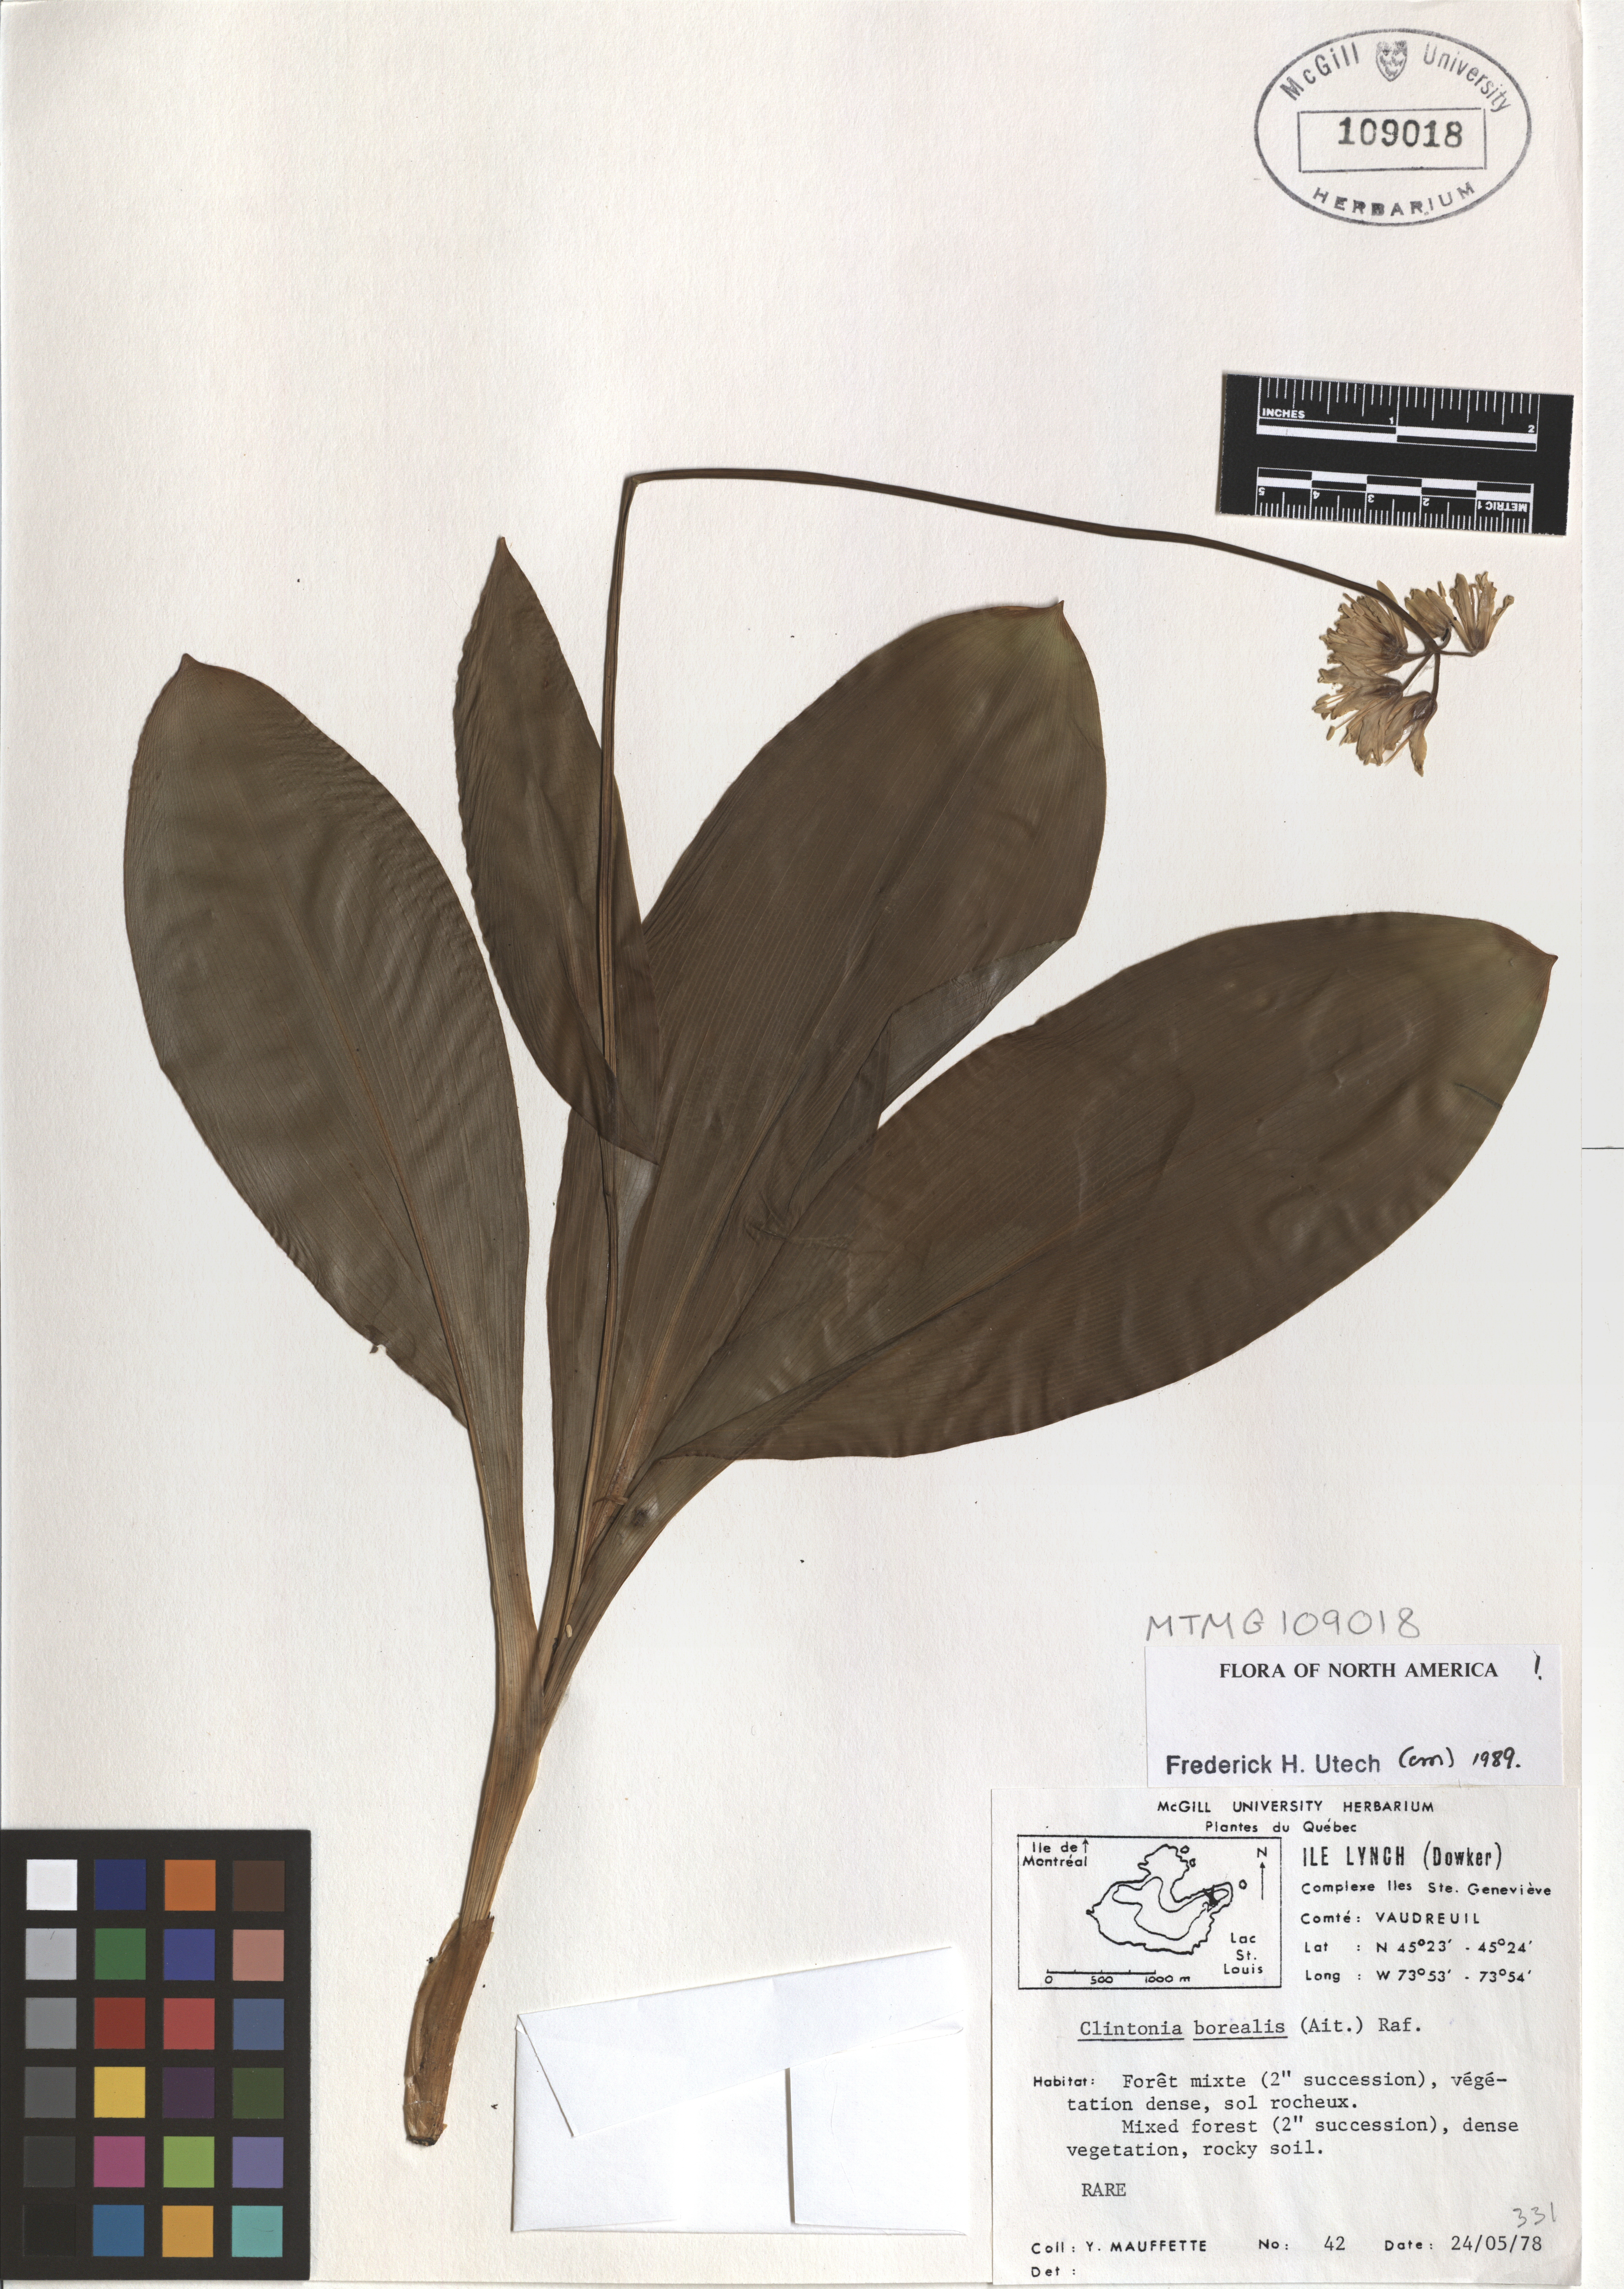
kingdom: Plantae
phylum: Tracheophyta
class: Liliopsida
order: Liliales
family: Liliaceae
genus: Clintonia
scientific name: Clintonia borealis
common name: Yellow clintonia
